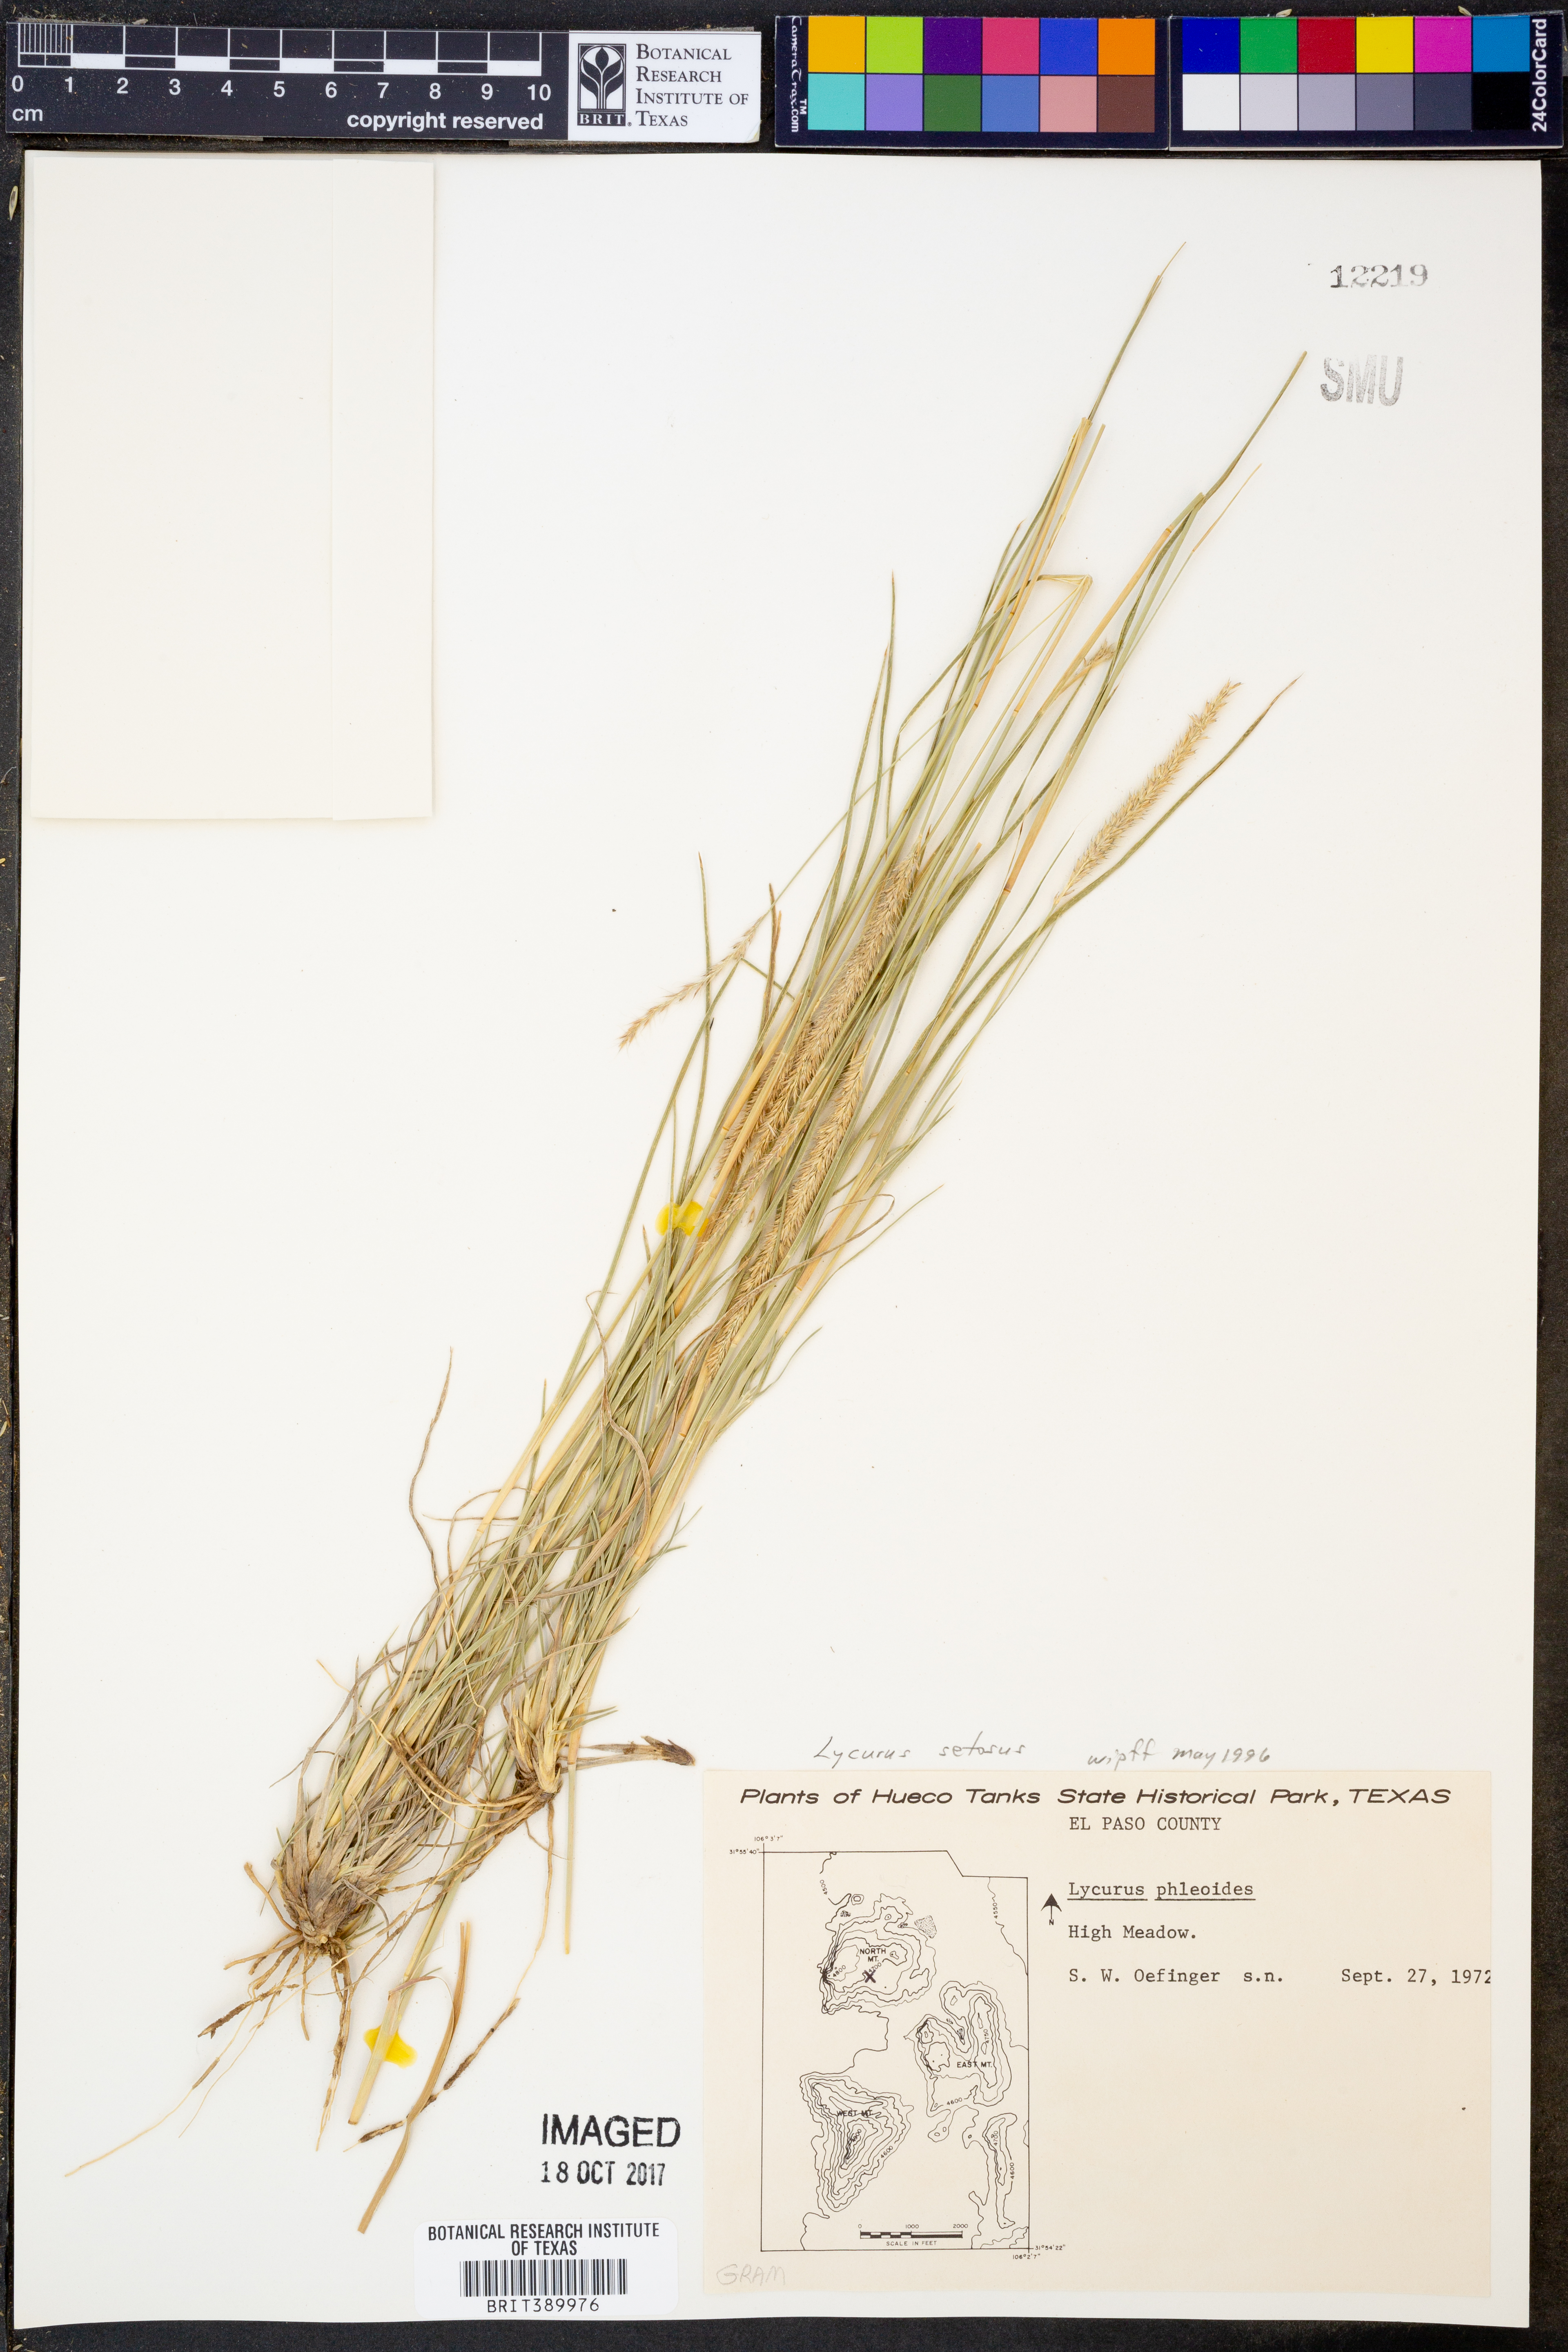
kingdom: Plantae
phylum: Tracheophyta
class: Liliopsida
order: Poales
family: Poaceae
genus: Muhlenbergia
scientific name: Muhlenbergia alopecuroides
